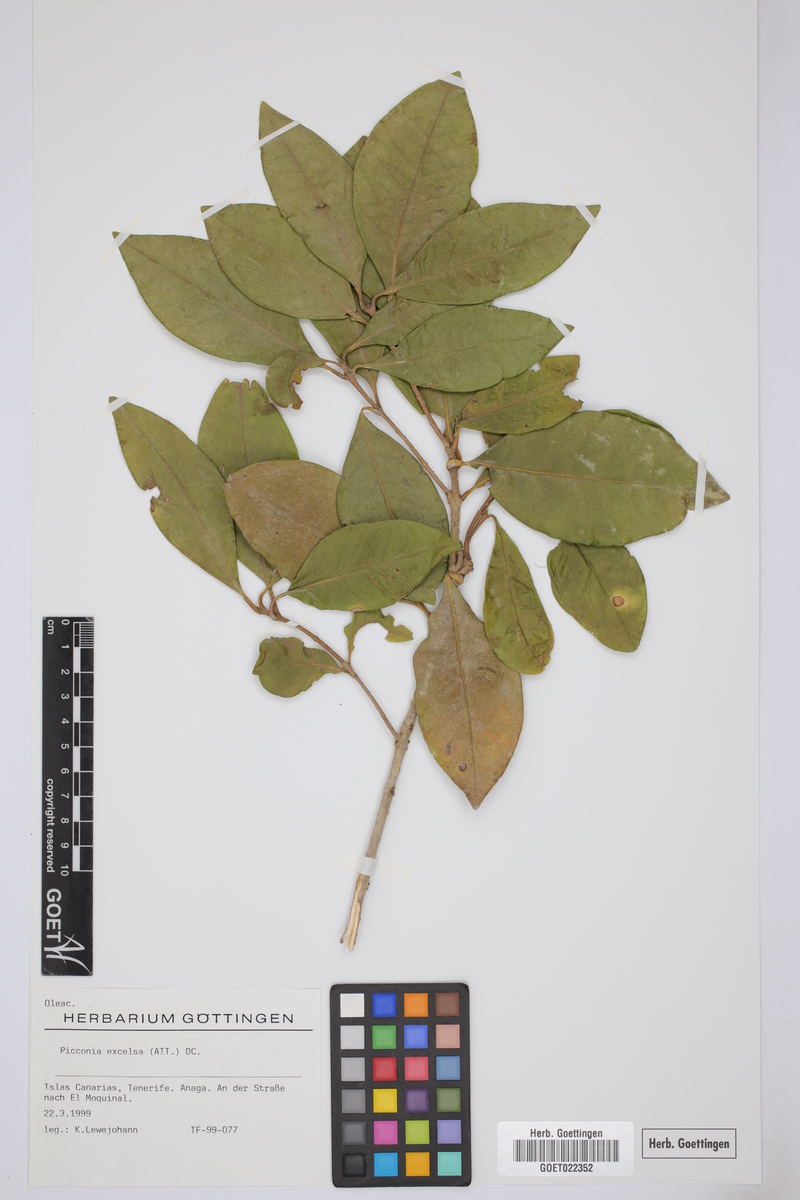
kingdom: Plantae
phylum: Tracheophyta
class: Magnoliopsida
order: Lamiales
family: Oleaceae
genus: Picconia
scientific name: Picconia excelsa
